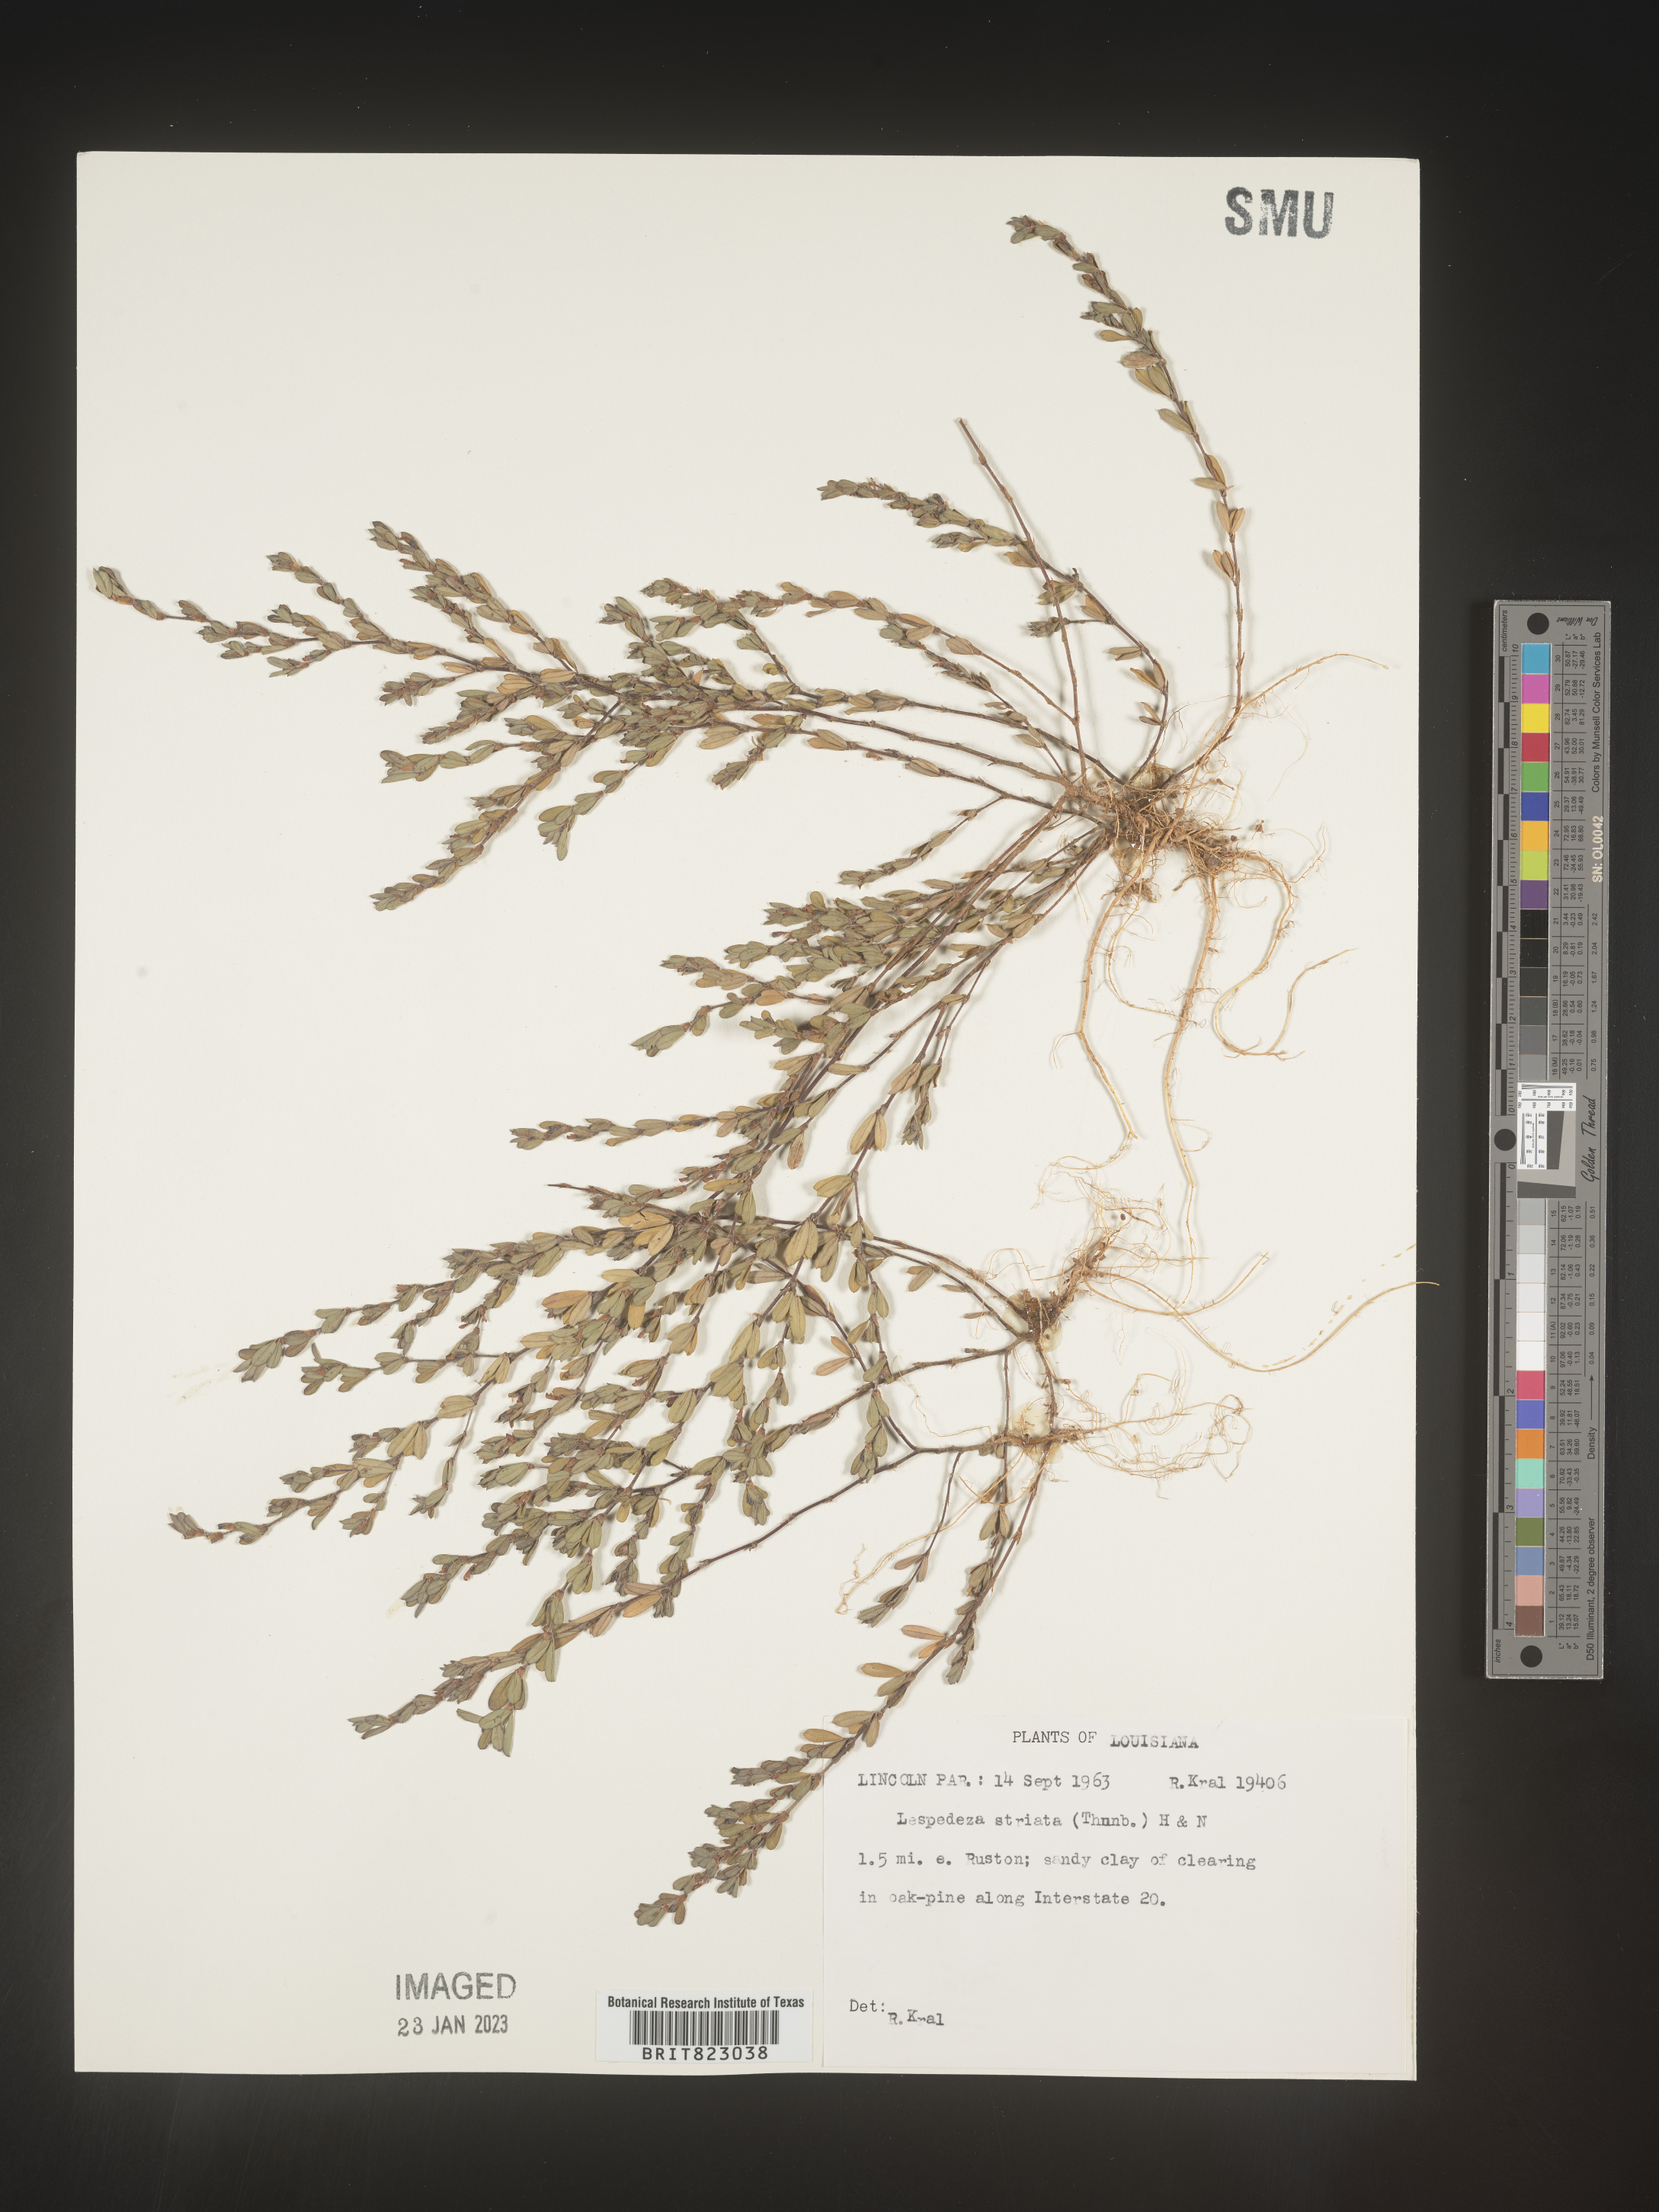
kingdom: Plantae
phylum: Tracheophyta
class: Magnoliopsida
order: Fabales
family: Fabaceae
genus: Kummerowia
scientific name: Kummerowia striata
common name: Japanese clover
